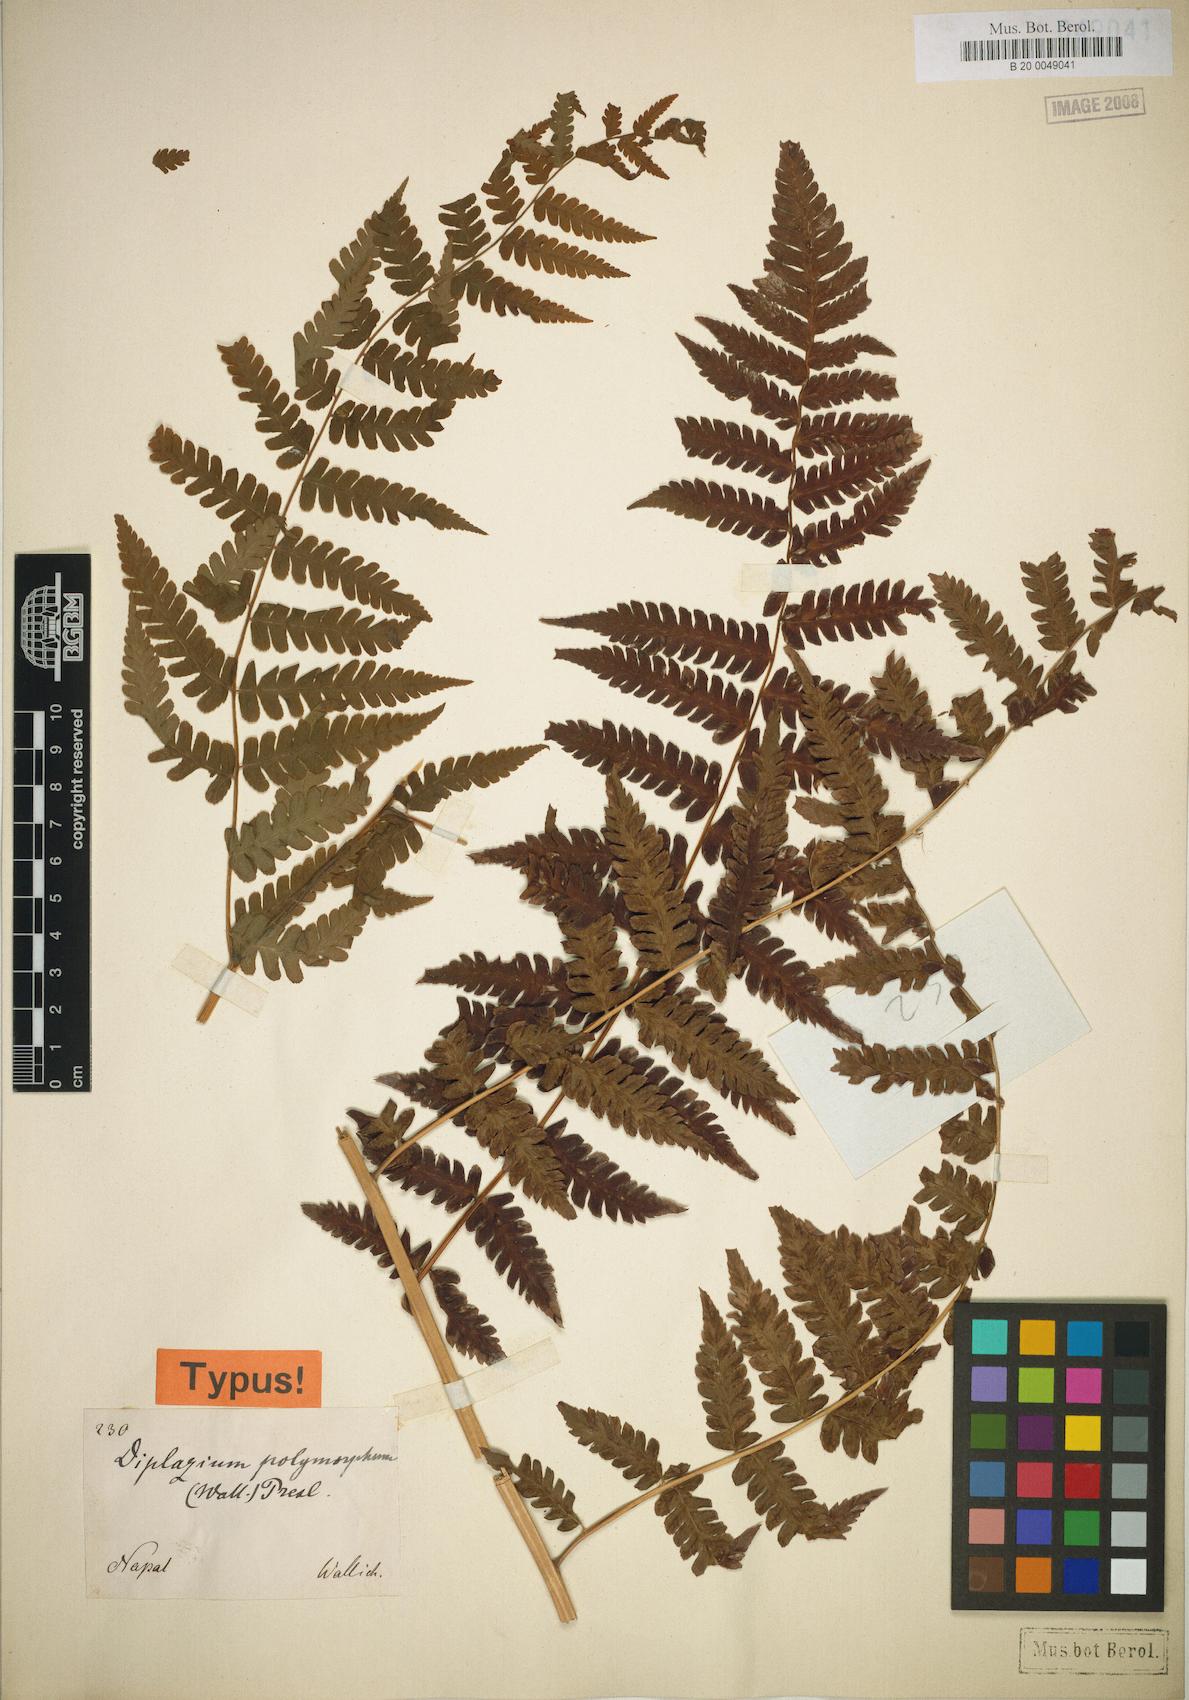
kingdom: Plantae
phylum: Tracheophyta
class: Polypodiopsida
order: Polypodiales
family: Athyriaceae
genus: Diplazium
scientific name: Diplazium maximum
